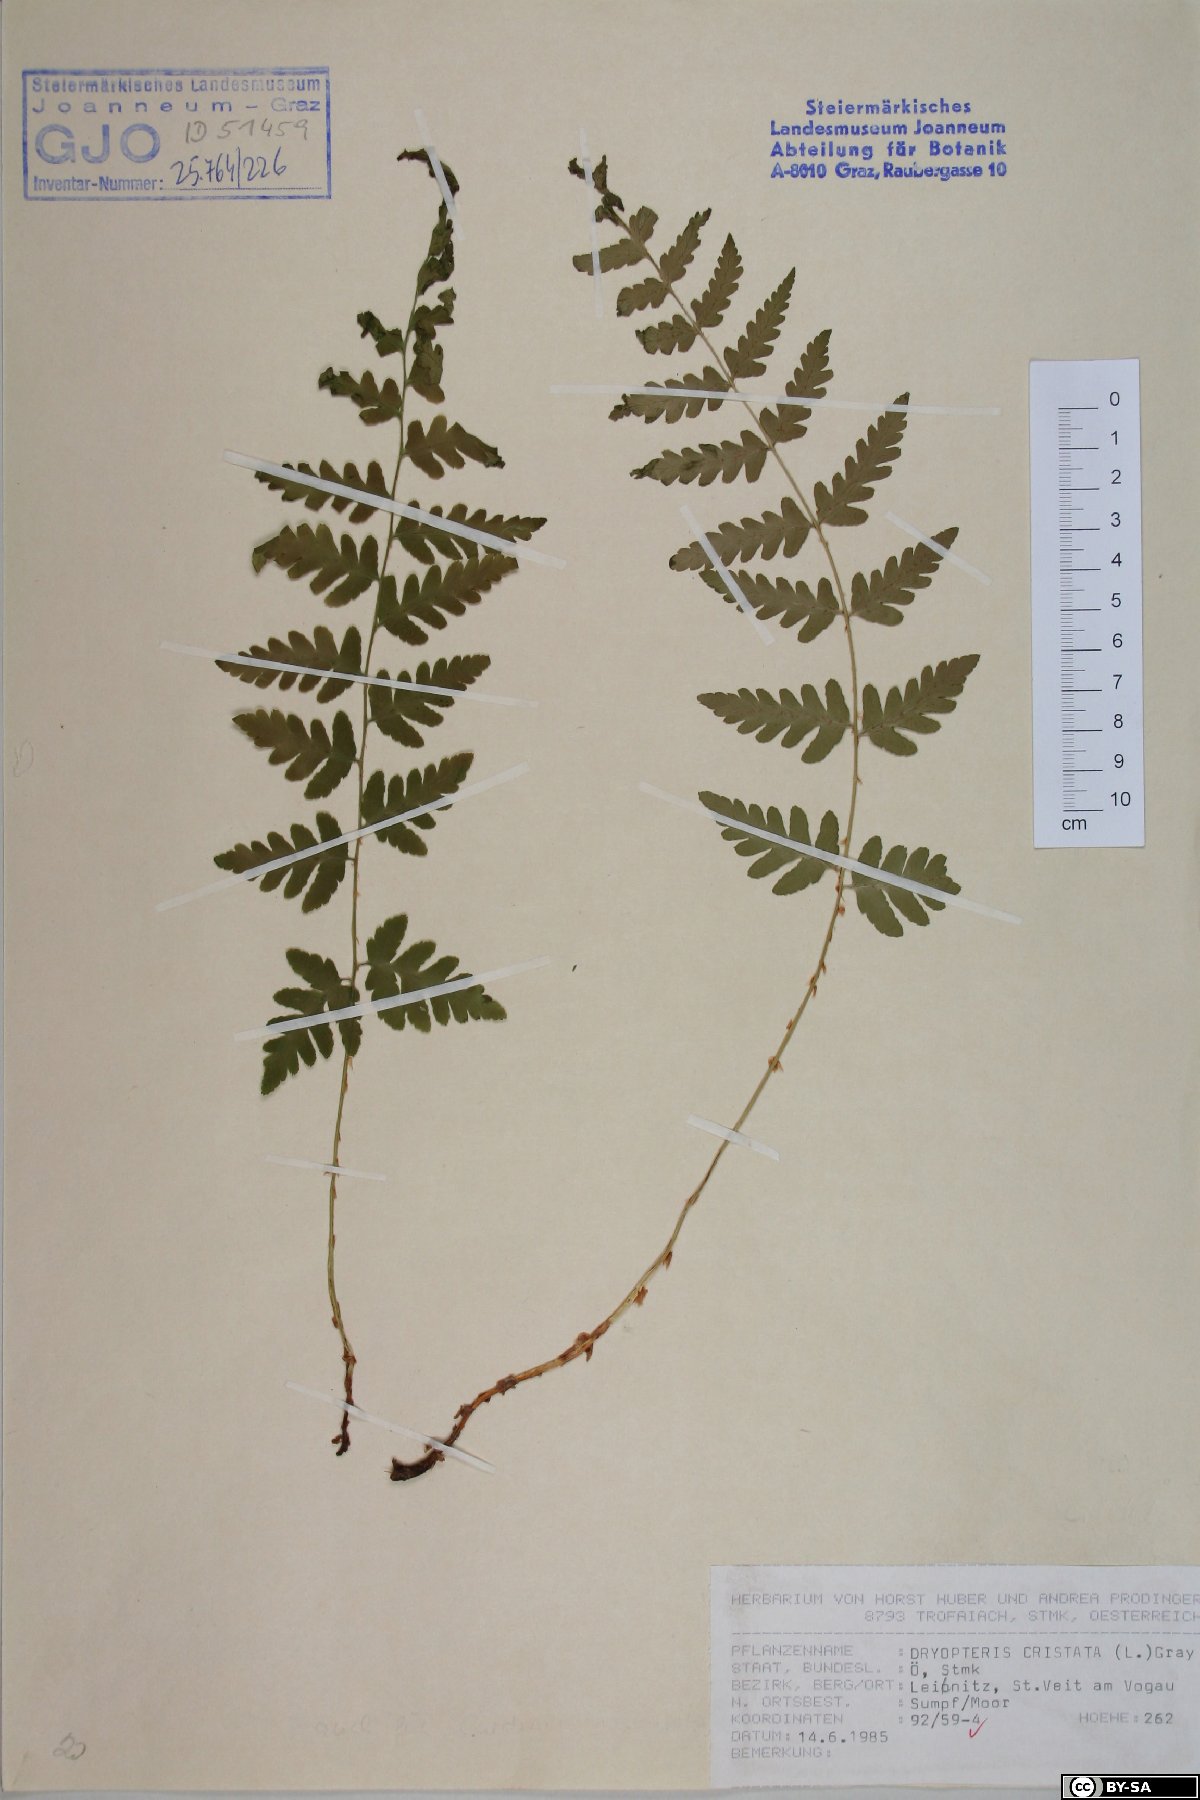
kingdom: Plantae
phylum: Tracheophyta
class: Polypodiopsida
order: Polypodiales
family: Dryopteridaceae
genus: Dryopteris
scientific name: Dryopteris cristata
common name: Crested wood fern
